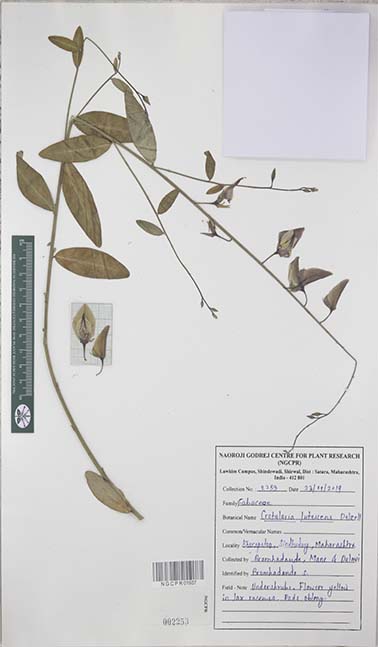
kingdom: Plantae
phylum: Tracheophyta
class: Magnoliopsida
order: Fabales
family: Fabaceae
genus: Crotalaria
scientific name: Crotalaria lutescens
